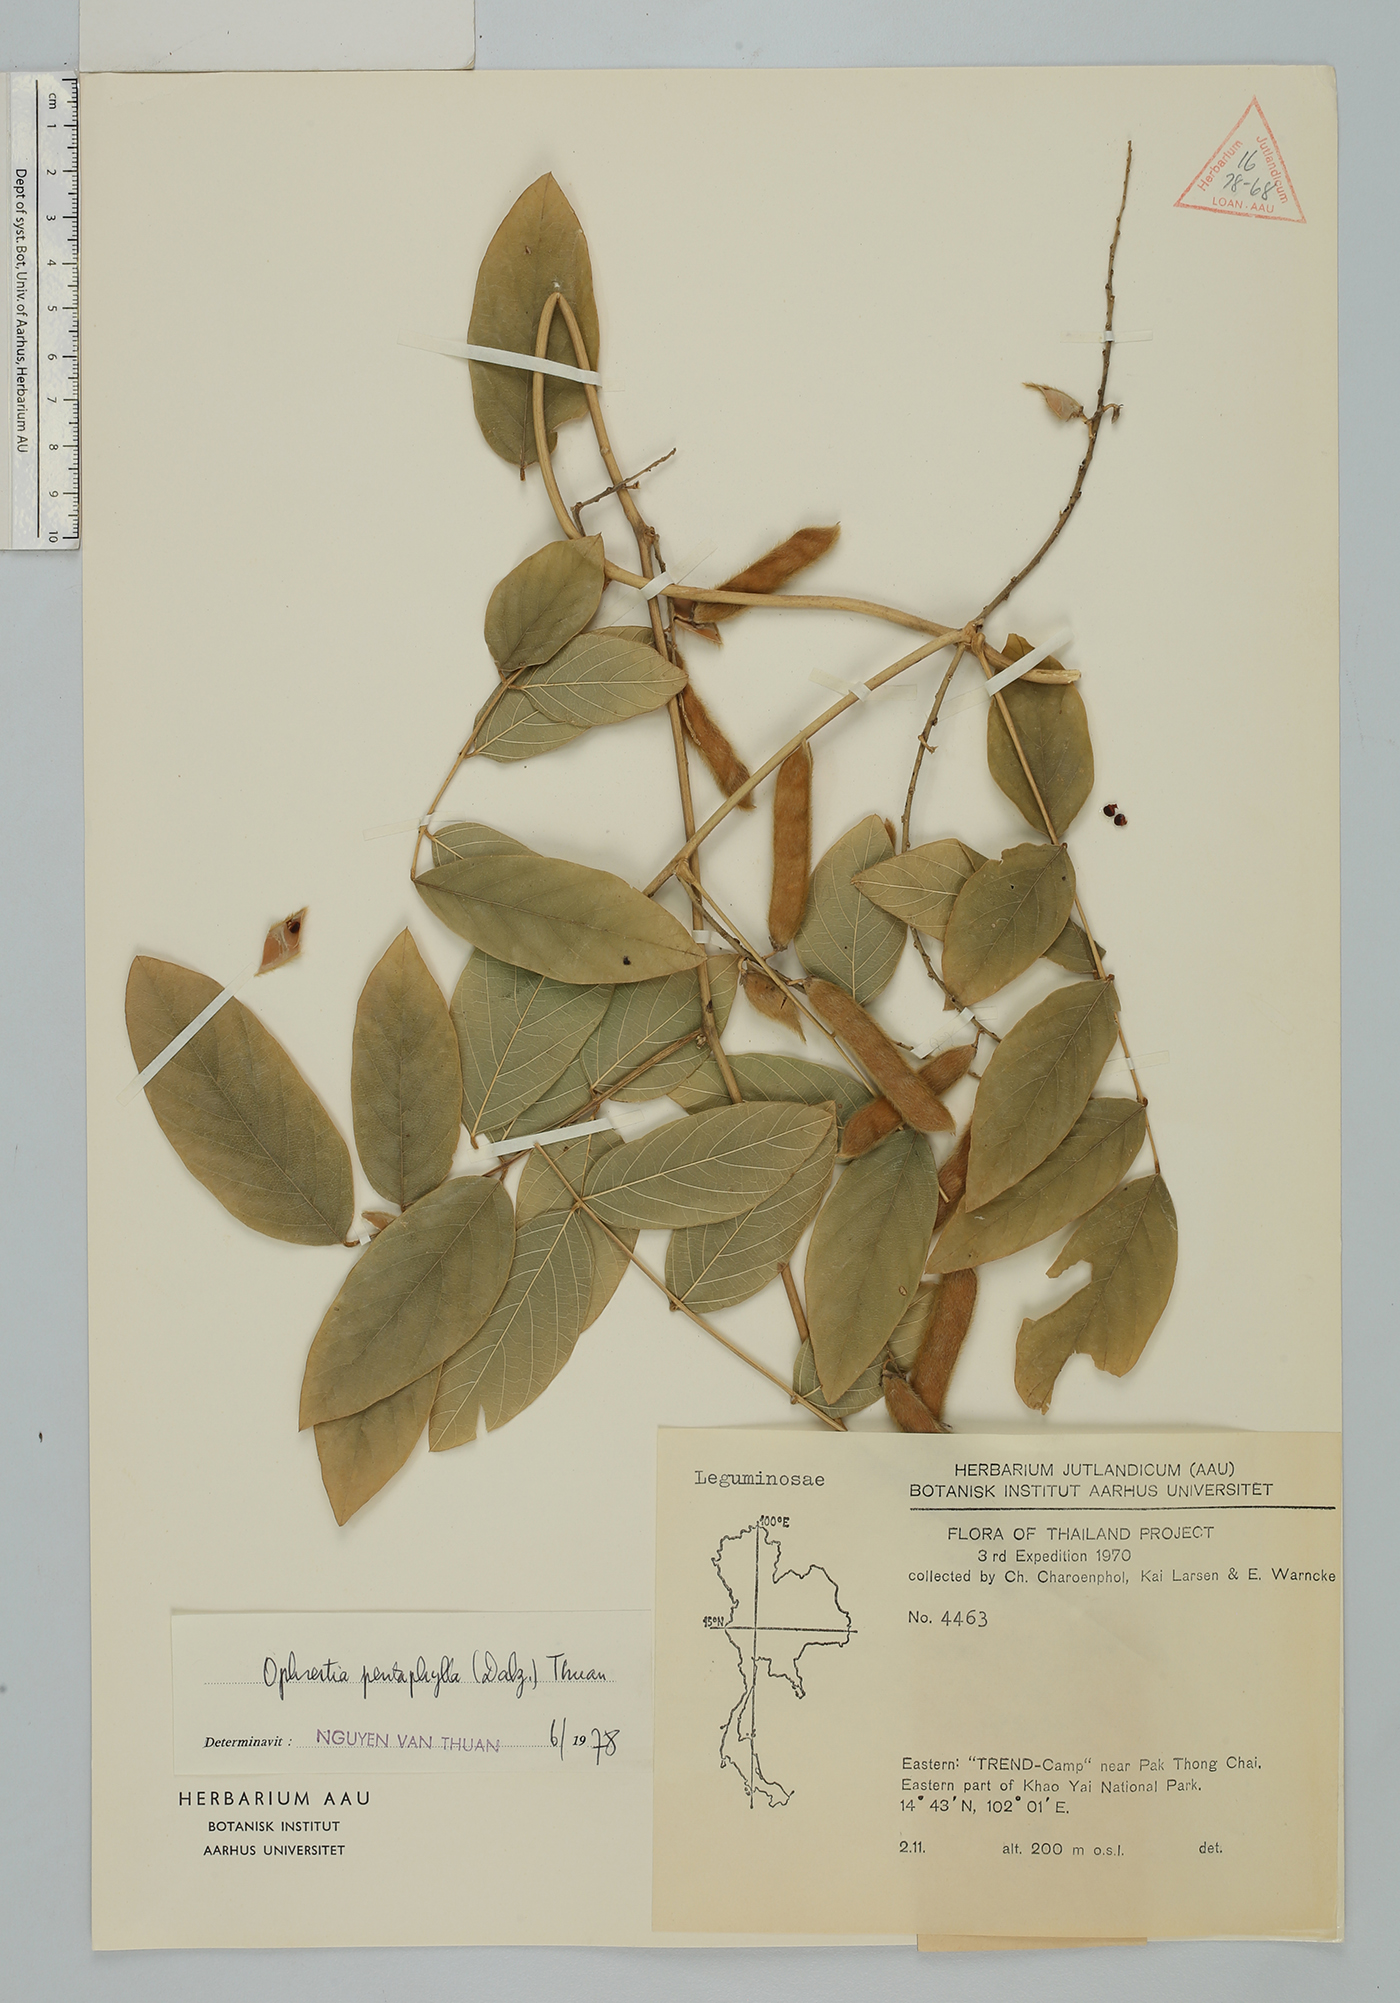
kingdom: Plantae
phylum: Tracheophyta
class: Magnoliopsida
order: Fabales
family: Fabaceae
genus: Ophrestia
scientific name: Ophrestia pentaphylla
